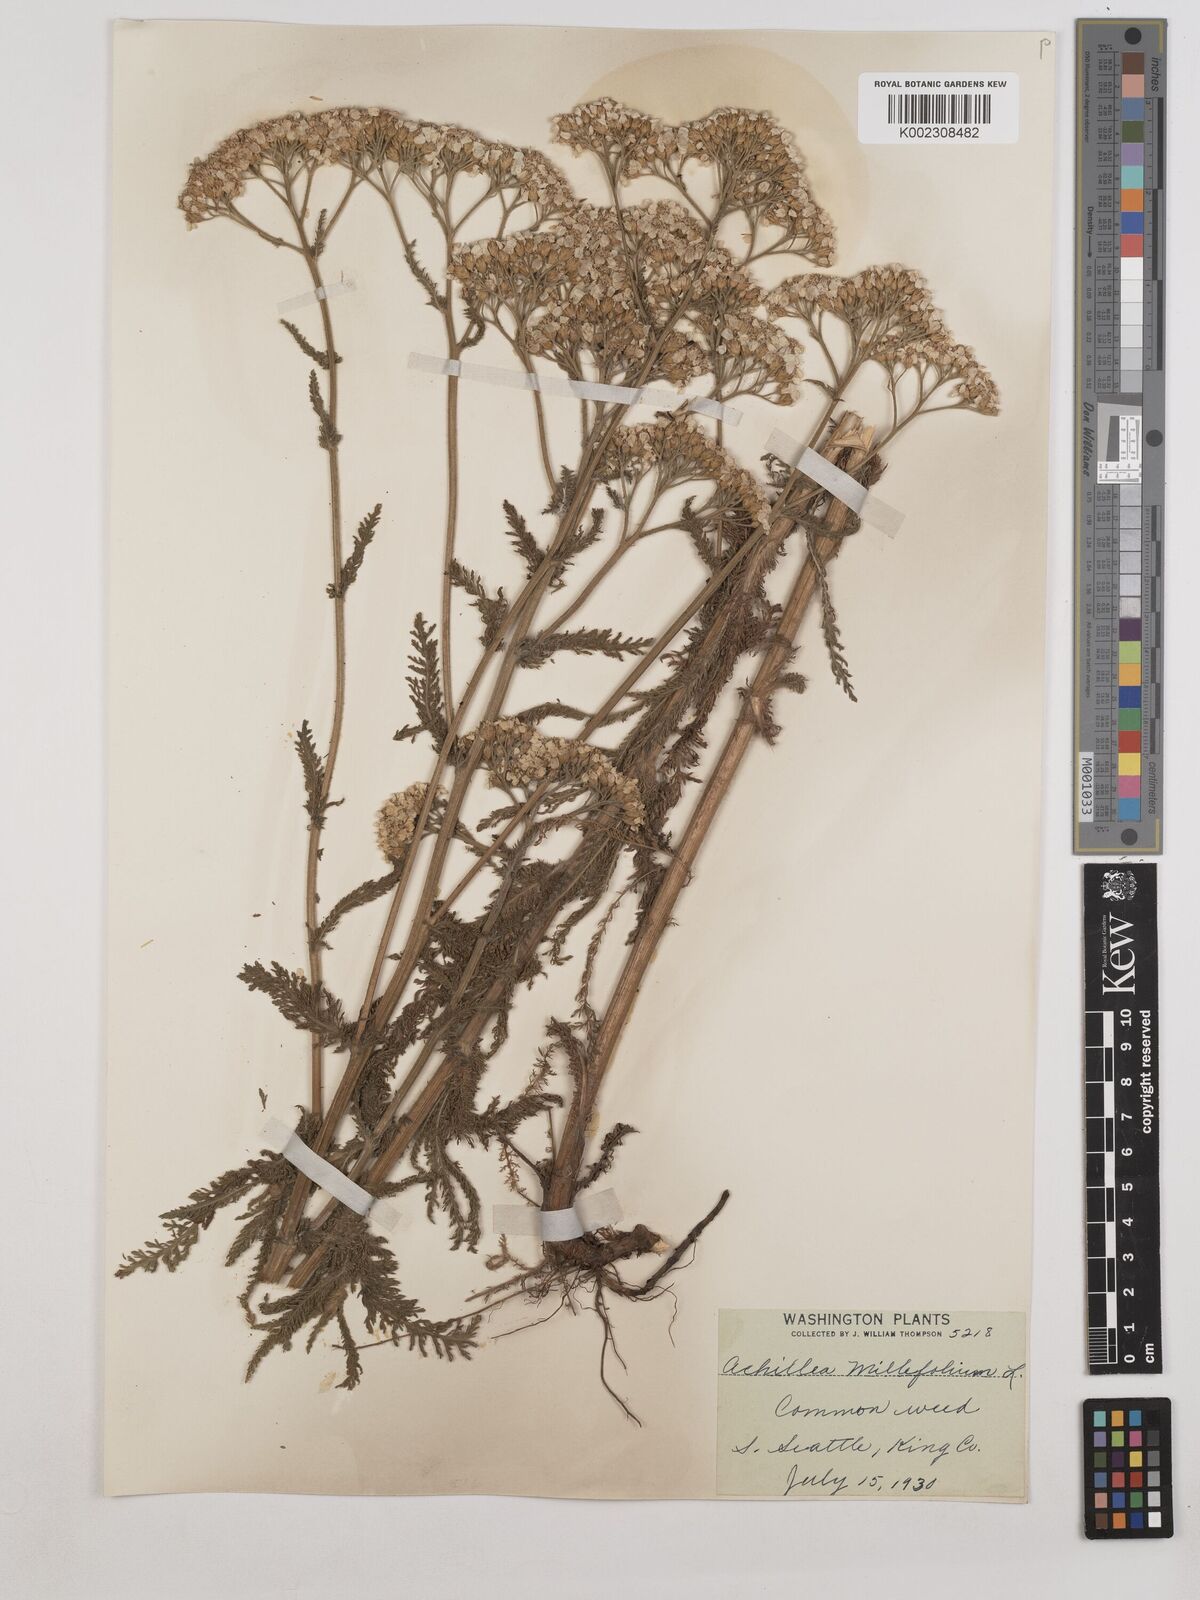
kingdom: Plantae
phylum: Tracheophyta
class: Magnoliopsida
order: Asterales
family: Asteraceae
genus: Achillea
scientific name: Achillea millefolium
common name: Yarrow
